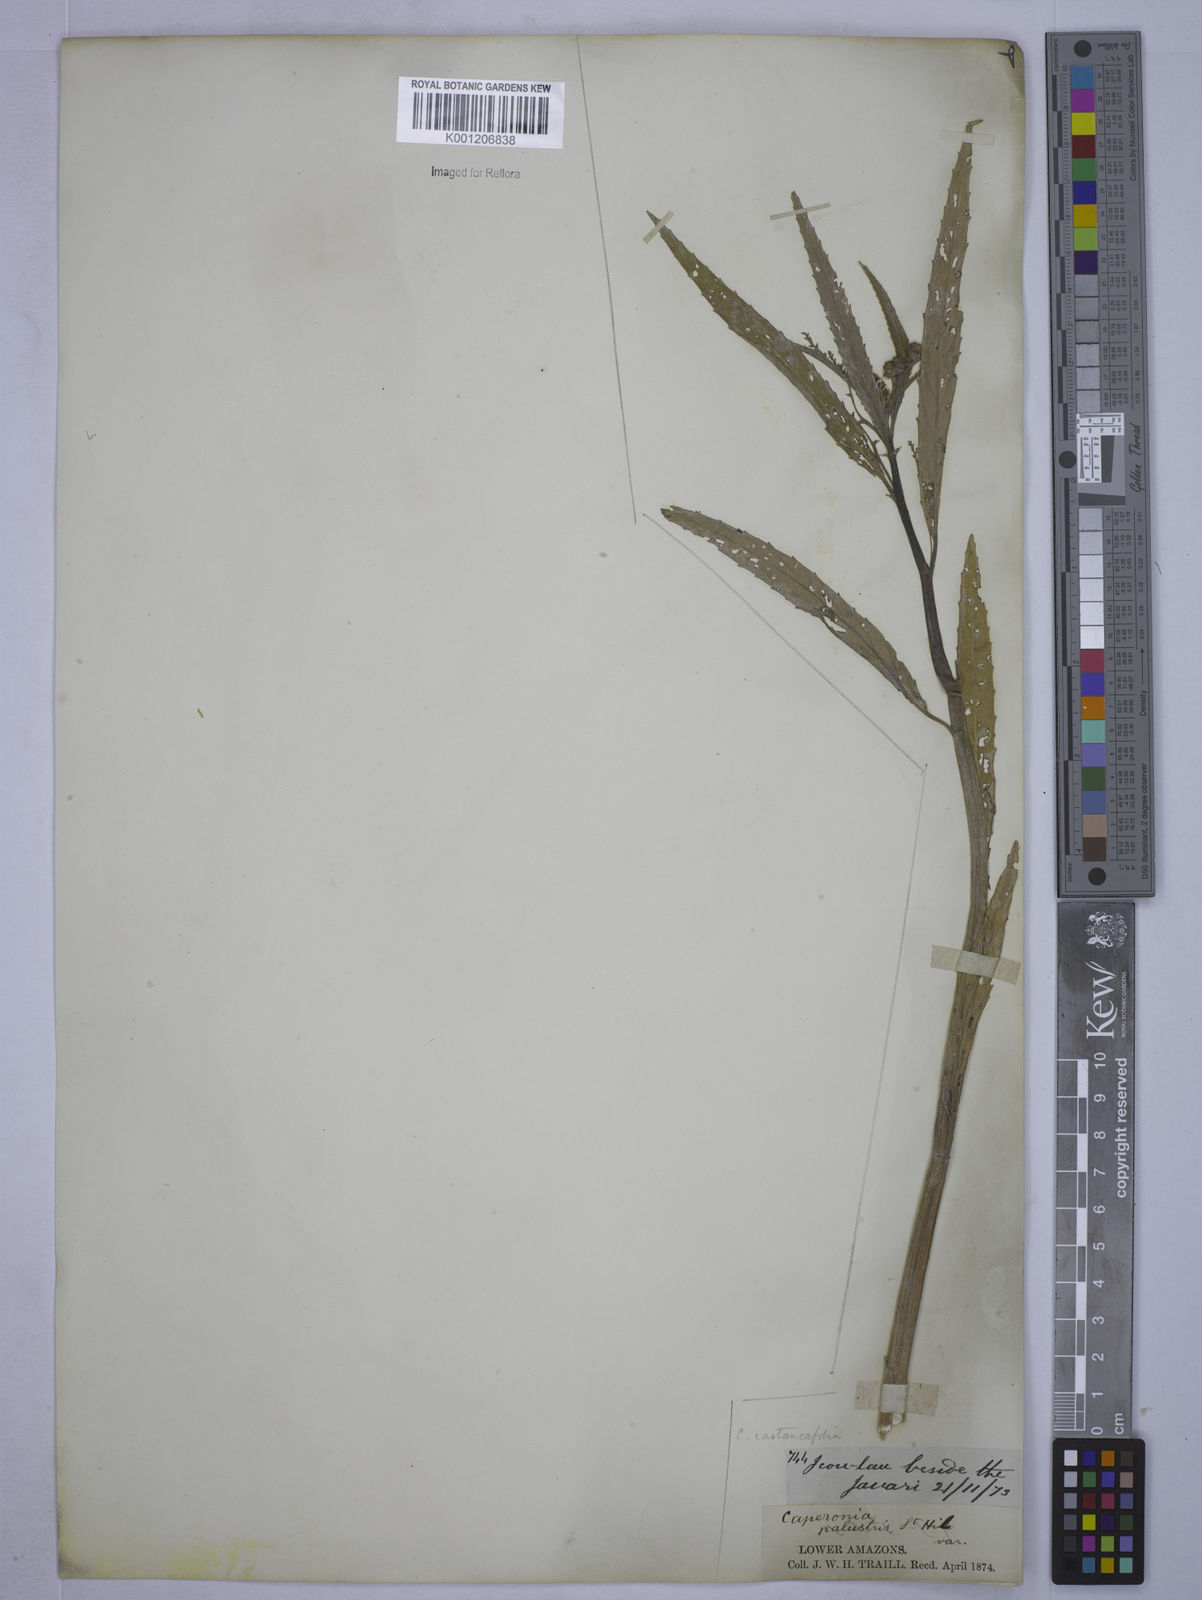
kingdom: Plantae
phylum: Tracheophyta
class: Magnoliopsida
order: Malpighiales
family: Euphorbiaceae
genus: Caperonia
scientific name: Caperonia castaneifolia
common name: Chestnutleaf false croton
